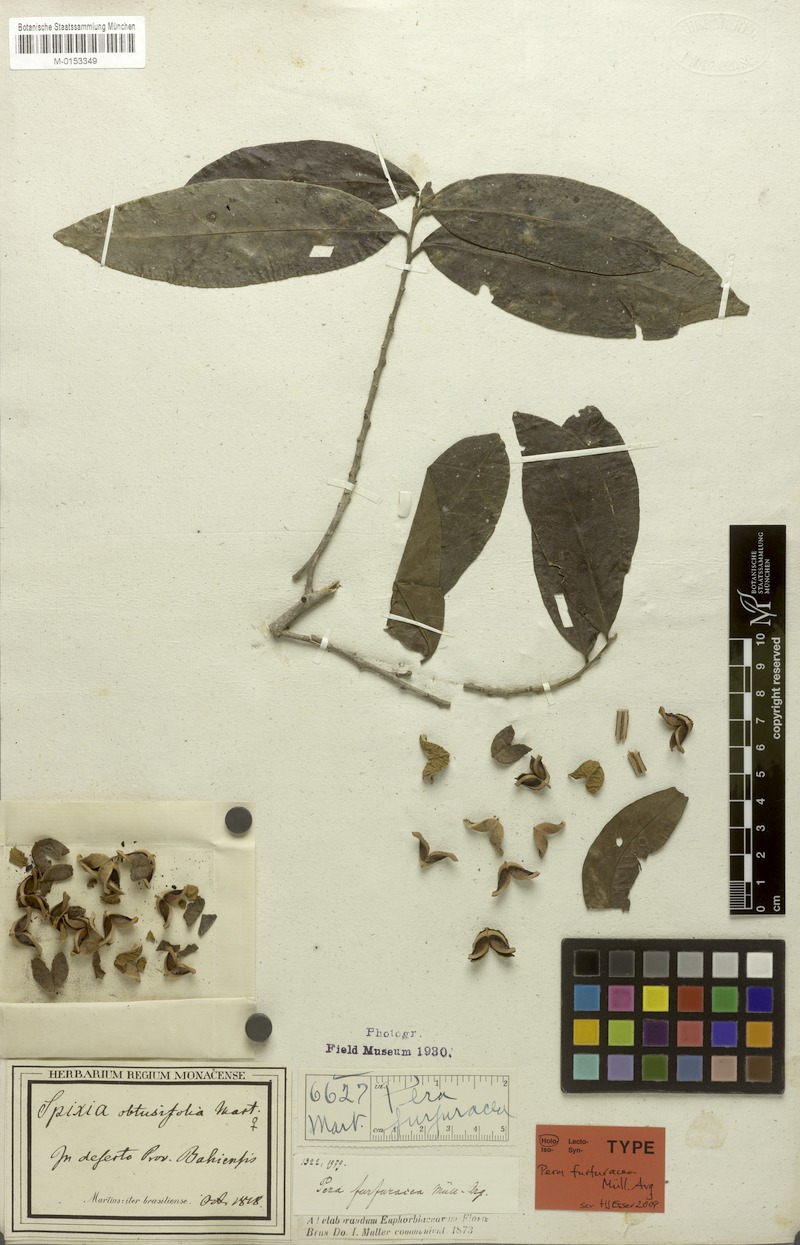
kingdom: Plantae
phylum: Tracheophyta
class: Magnoliopsida
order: Malpighiales
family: Peraceae
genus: Pera
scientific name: Pera furfuracea
